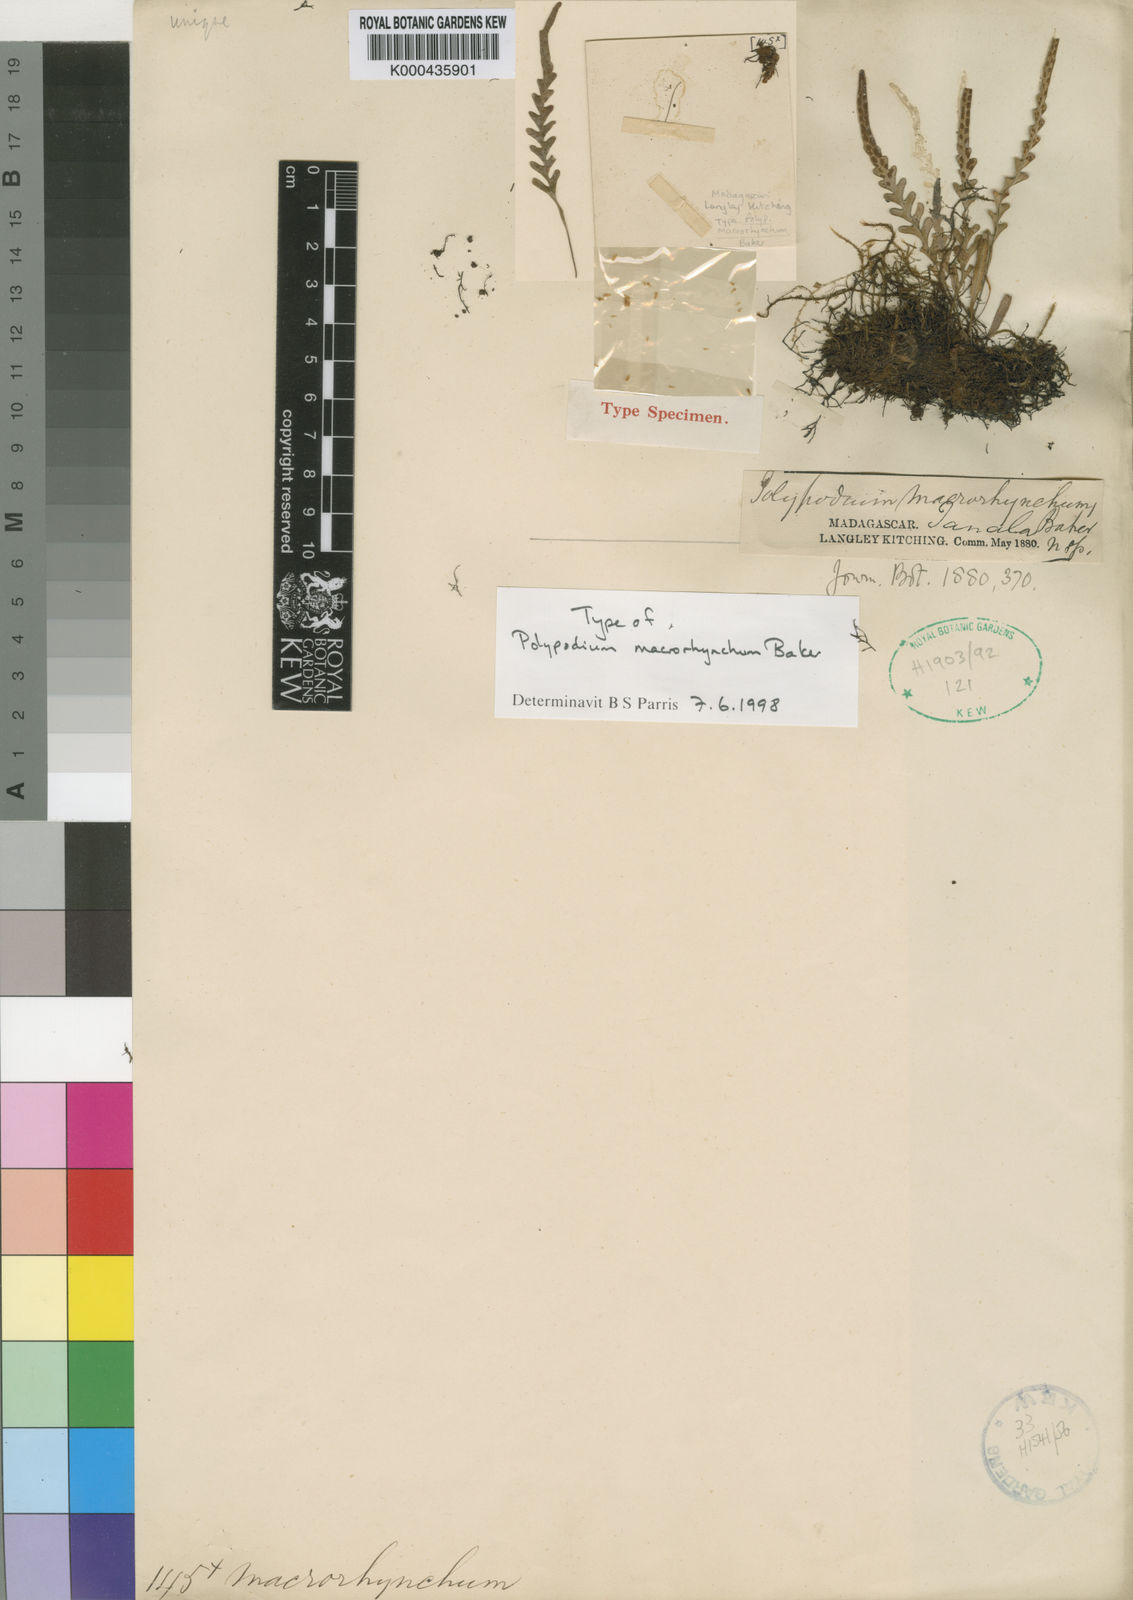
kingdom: Plantae
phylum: Tracheophyta
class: Polypodiopsida
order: Polypodiales
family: Polypodiaceae
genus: Grammitis
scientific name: Grammitis
